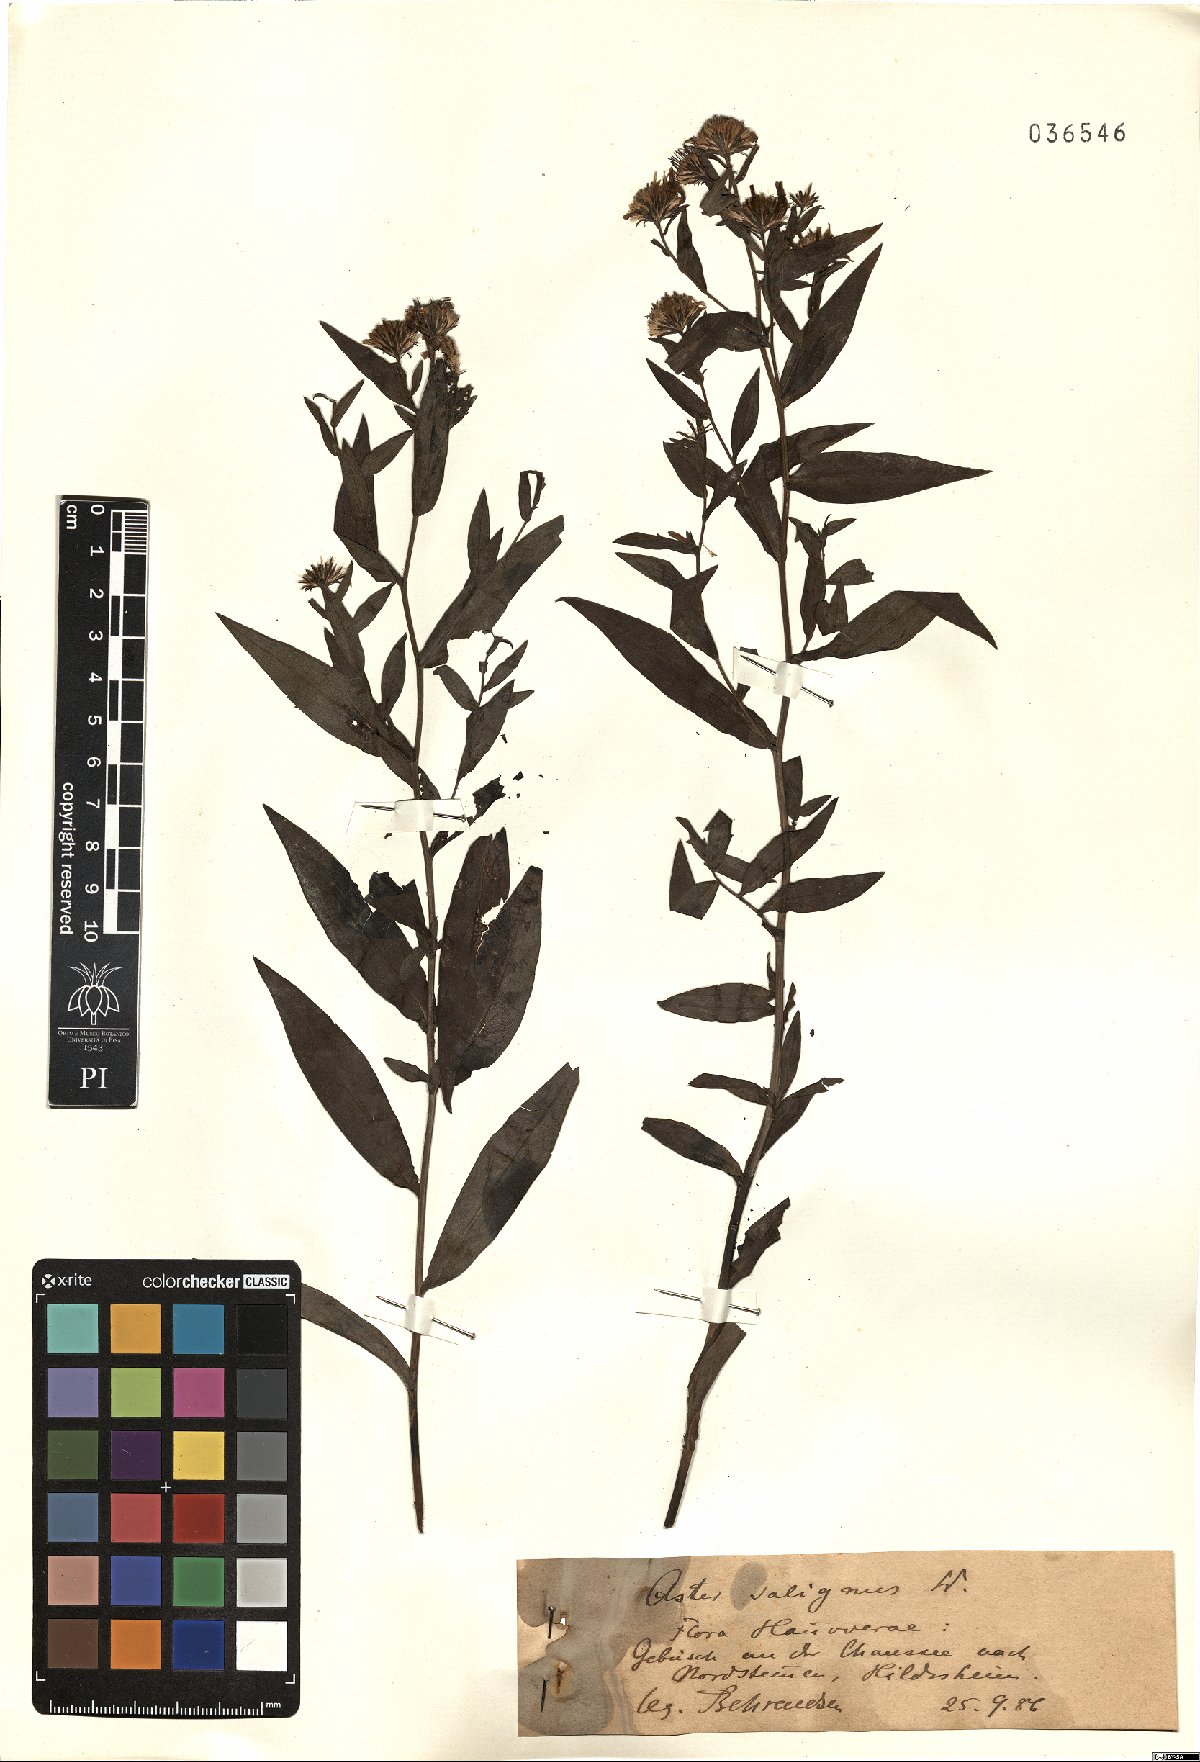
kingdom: Plantae
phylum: Tracheophyta
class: Magnoliopsida
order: Asterales
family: Asteraceae
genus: Symphyotrichum
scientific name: Symphyotrichum salignum
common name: Common michaelmas daisy
